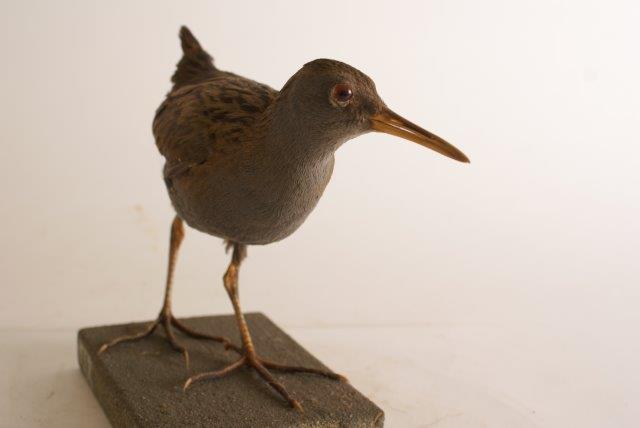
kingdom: Animalia
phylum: Chordata
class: Aves
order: Gruiformes
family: Rallidae
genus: Rallus
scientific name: Rallus aquaticus
